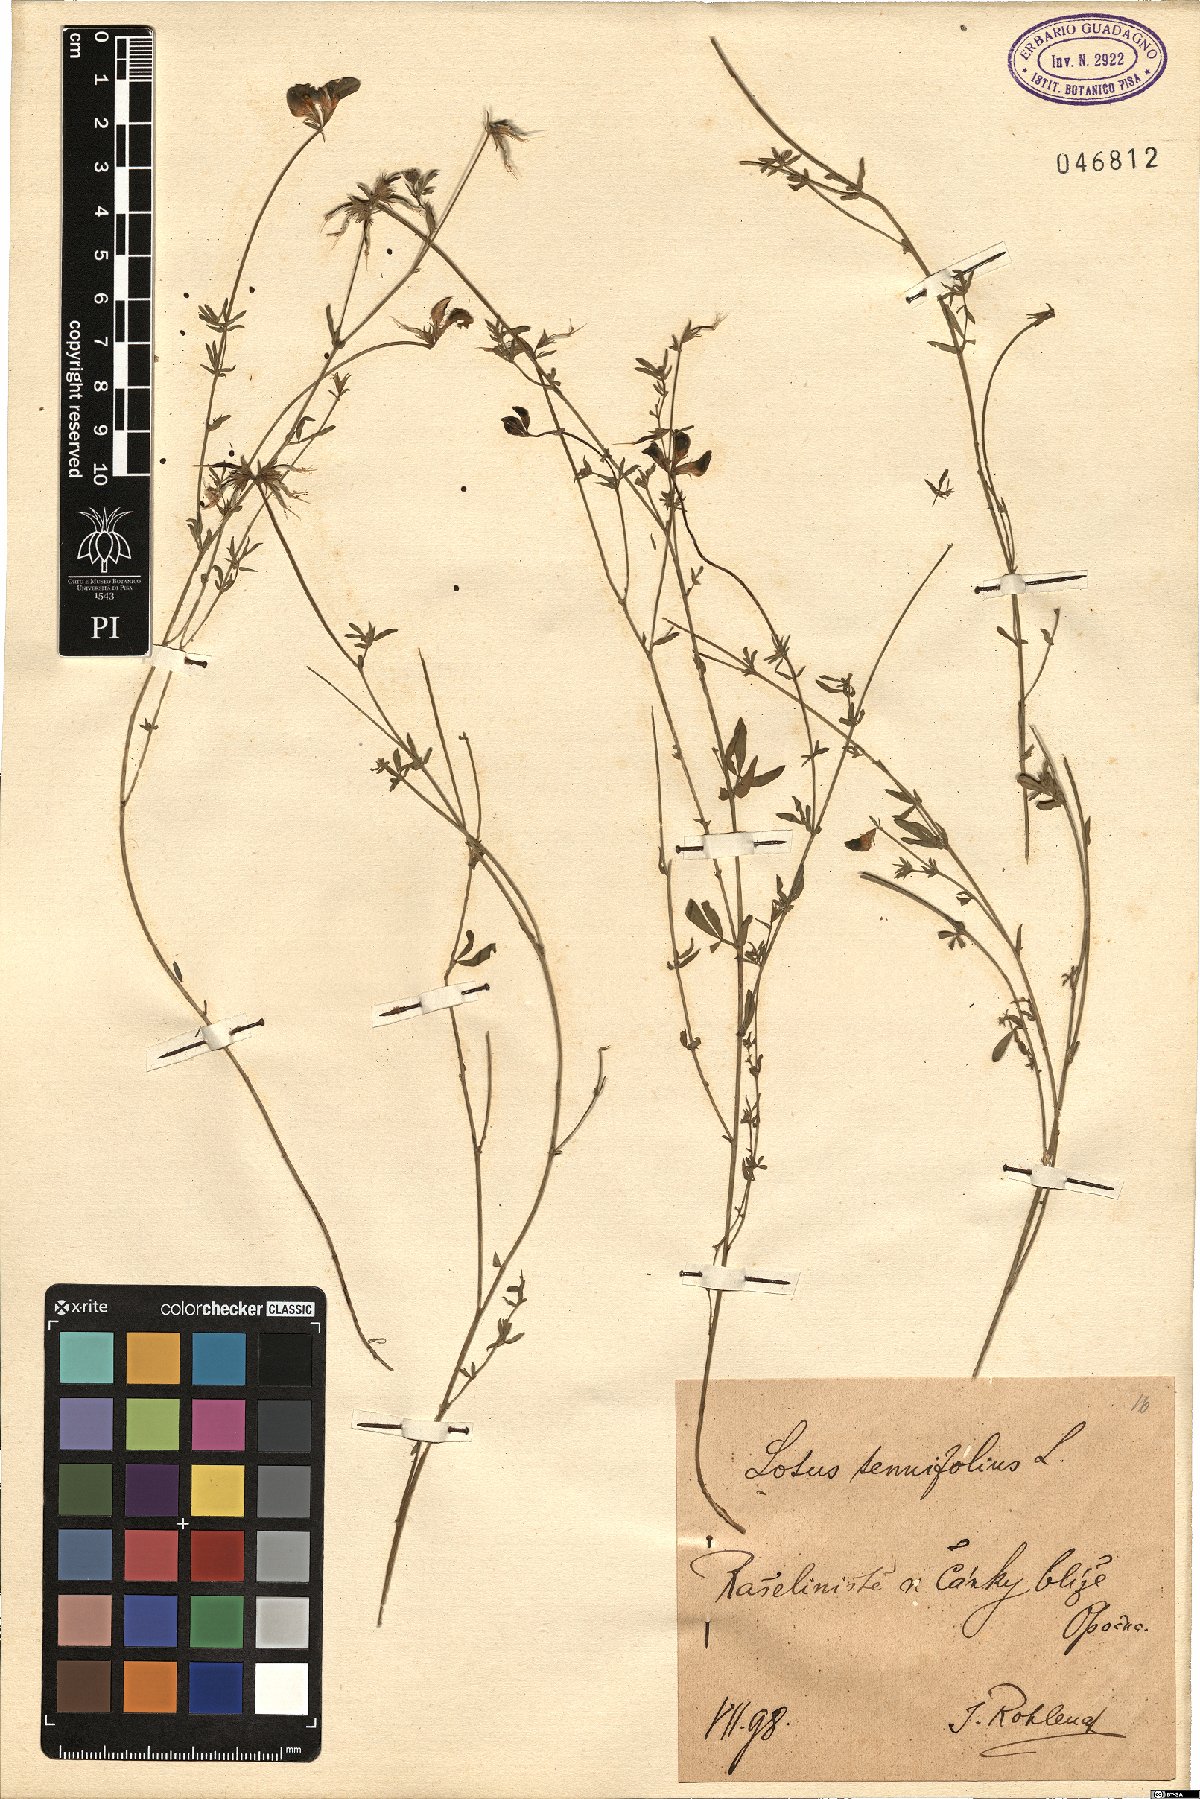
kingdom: Plantae
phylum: Tracheophyta
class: Magnoliopsida
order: Fabales
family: Fabaceae
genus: Lotus
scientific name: Lotus tenuis
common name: Narrow-leaved bird's-foot-trefoil
